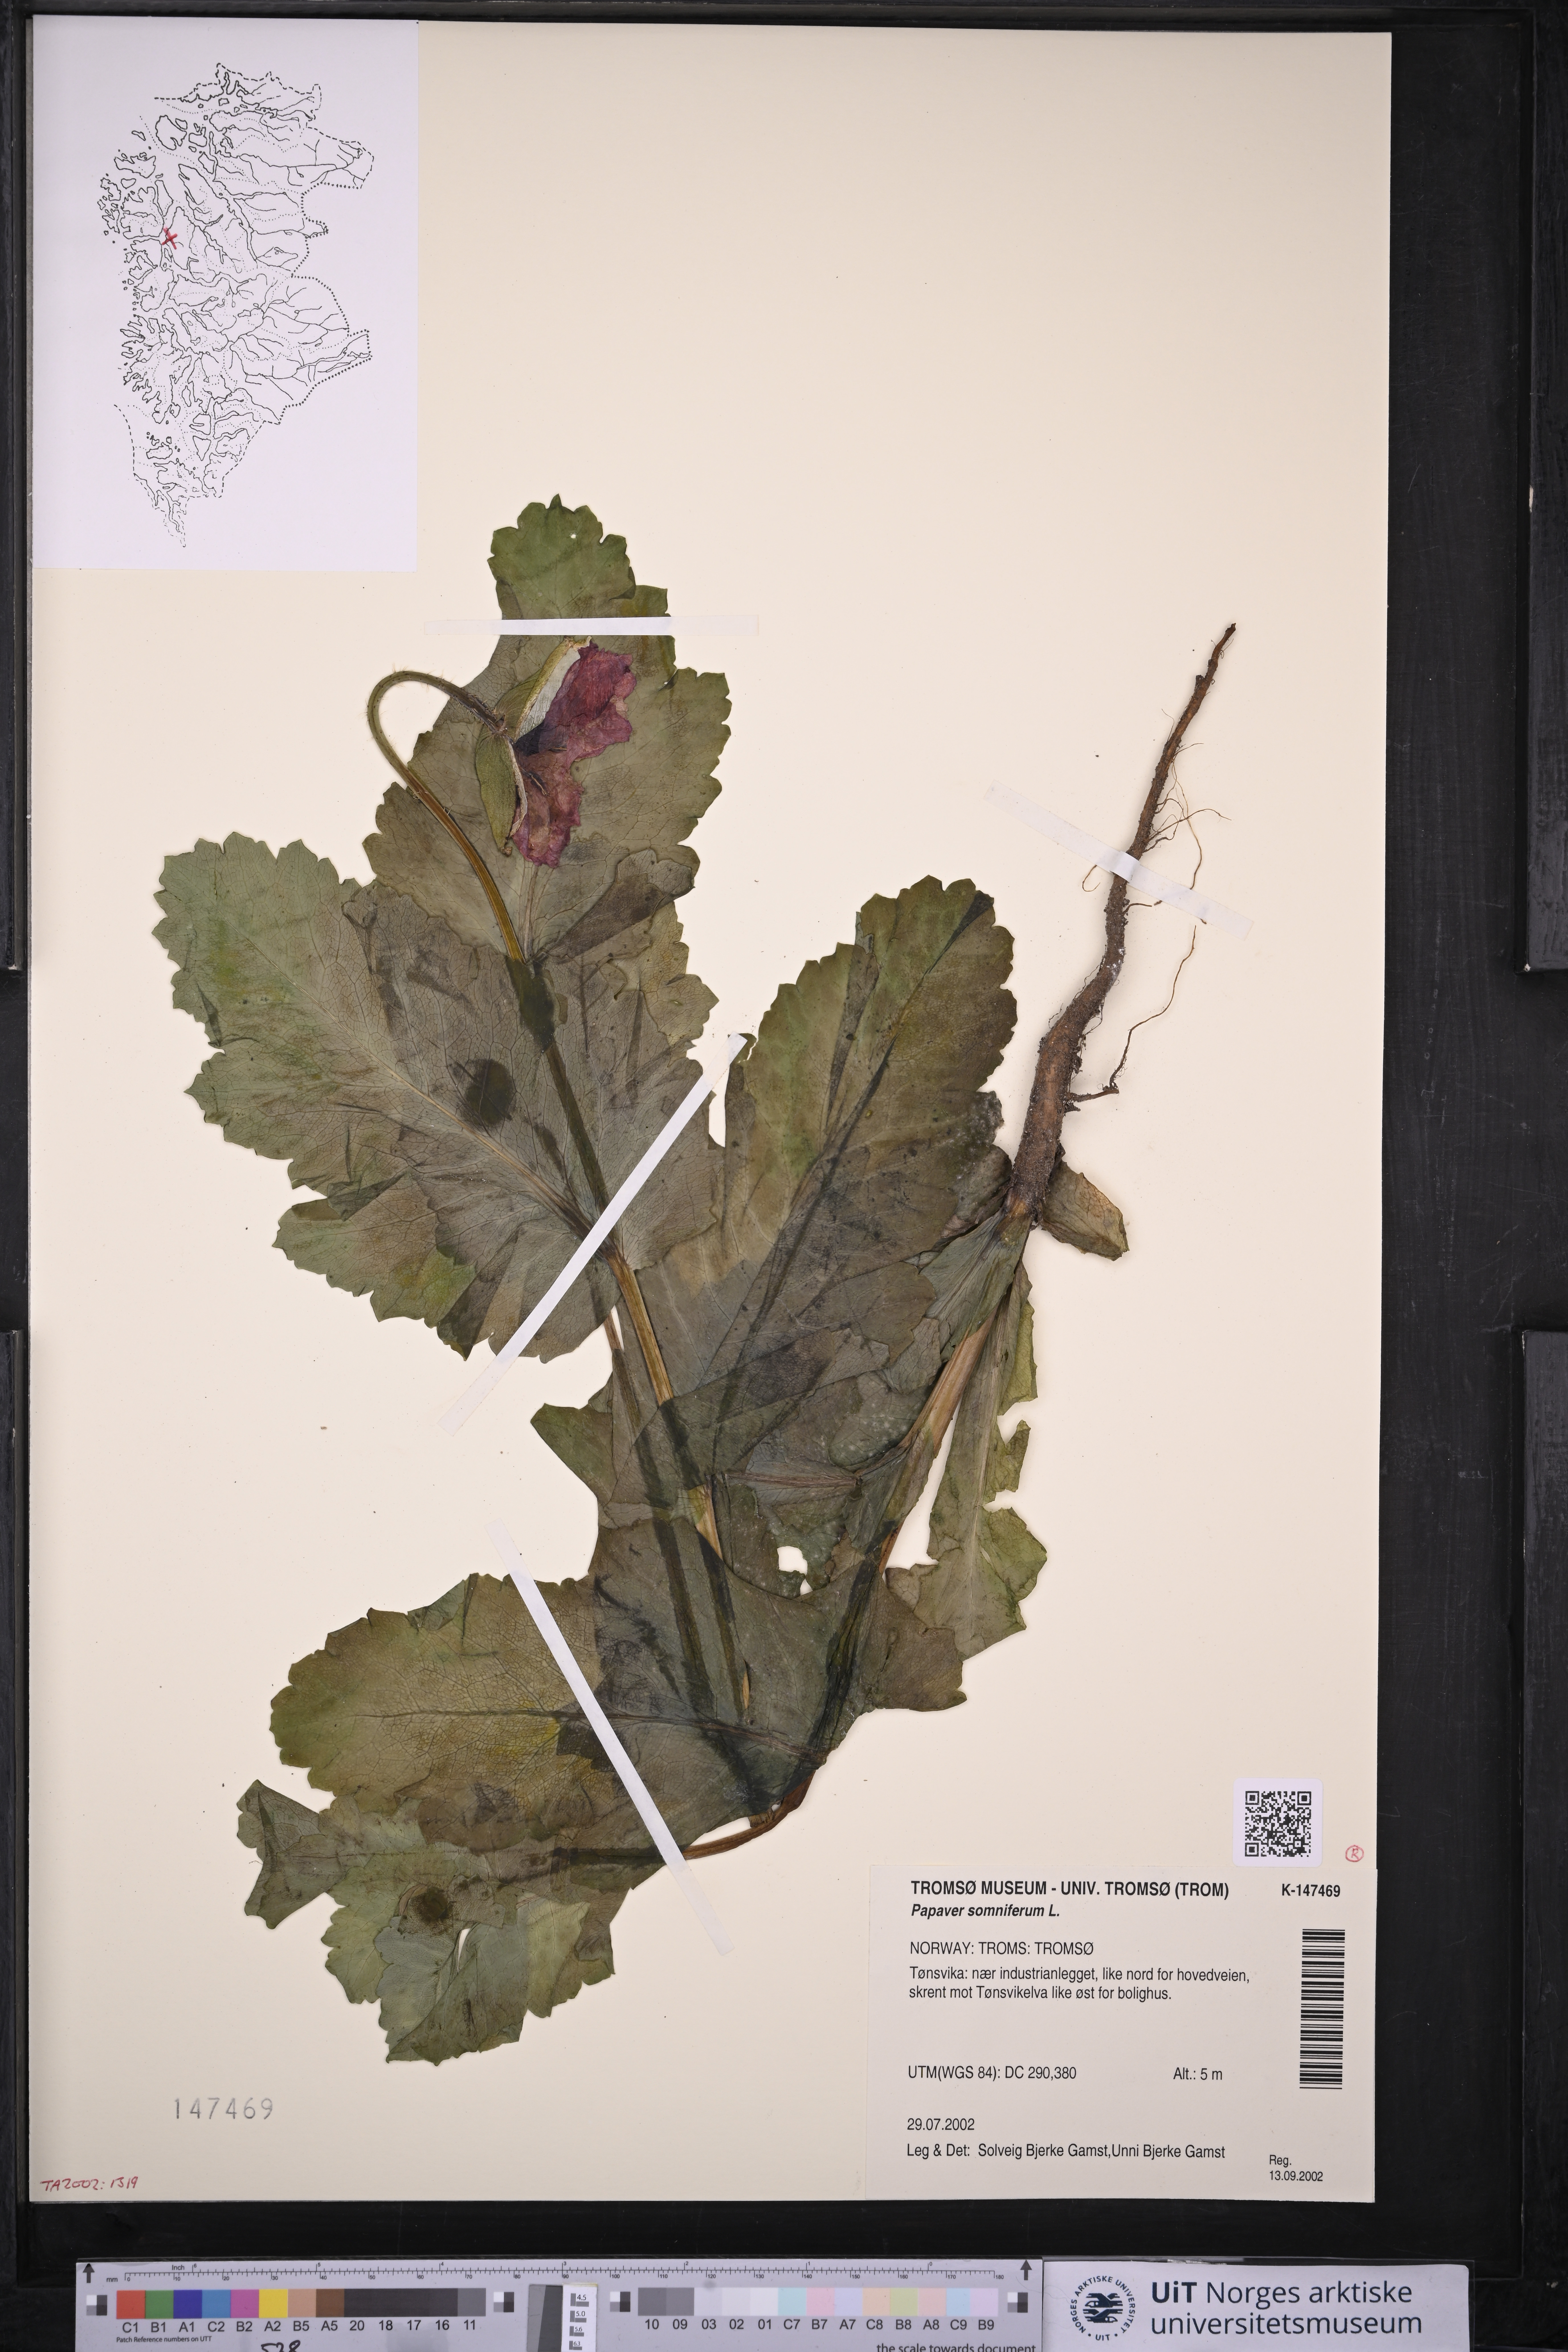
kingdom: Plantae
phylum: Tracheophyta
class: Magnoliopsida
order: Ranunculales
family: Papaveraceae
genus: Papaver
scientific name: Papaver somniferum
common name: Opium poppy
